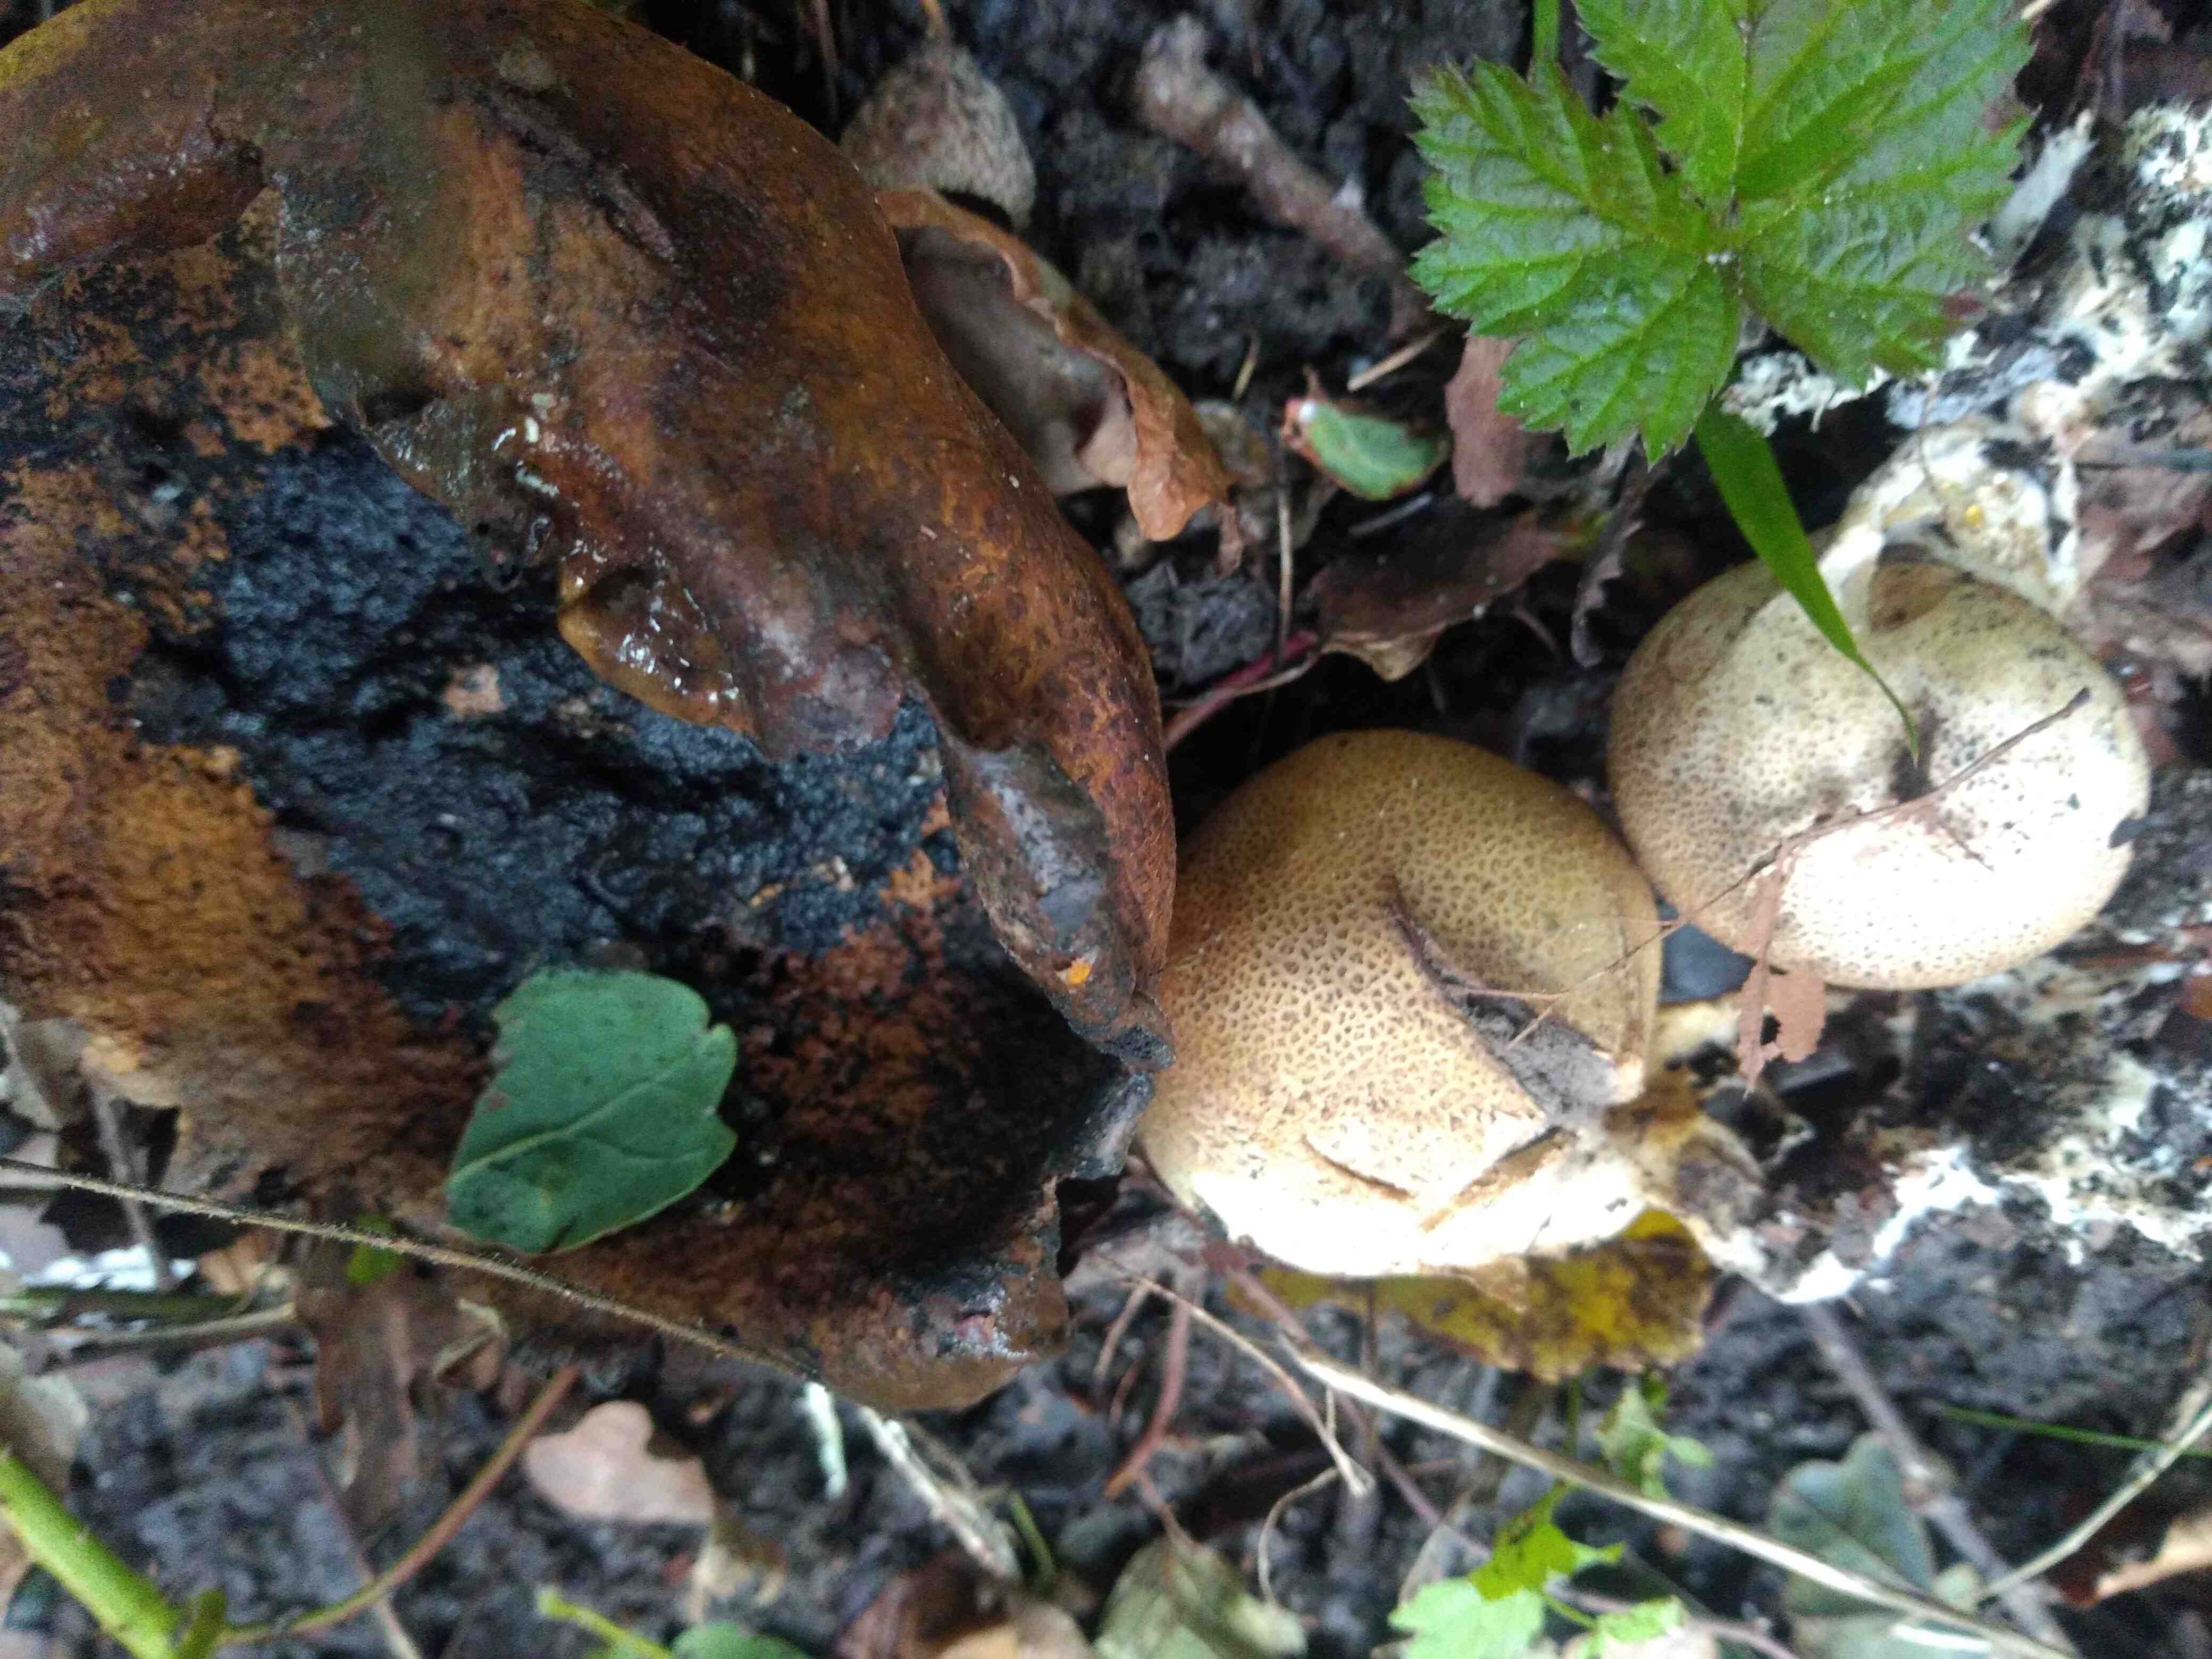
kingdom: Fungi
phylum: Basidiomycota
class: Agaricomycetes
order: Boletales
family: Sclerodermataceae
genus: Scleroderma
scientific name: Scleroderma areolatum
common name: plettet bruskbold
